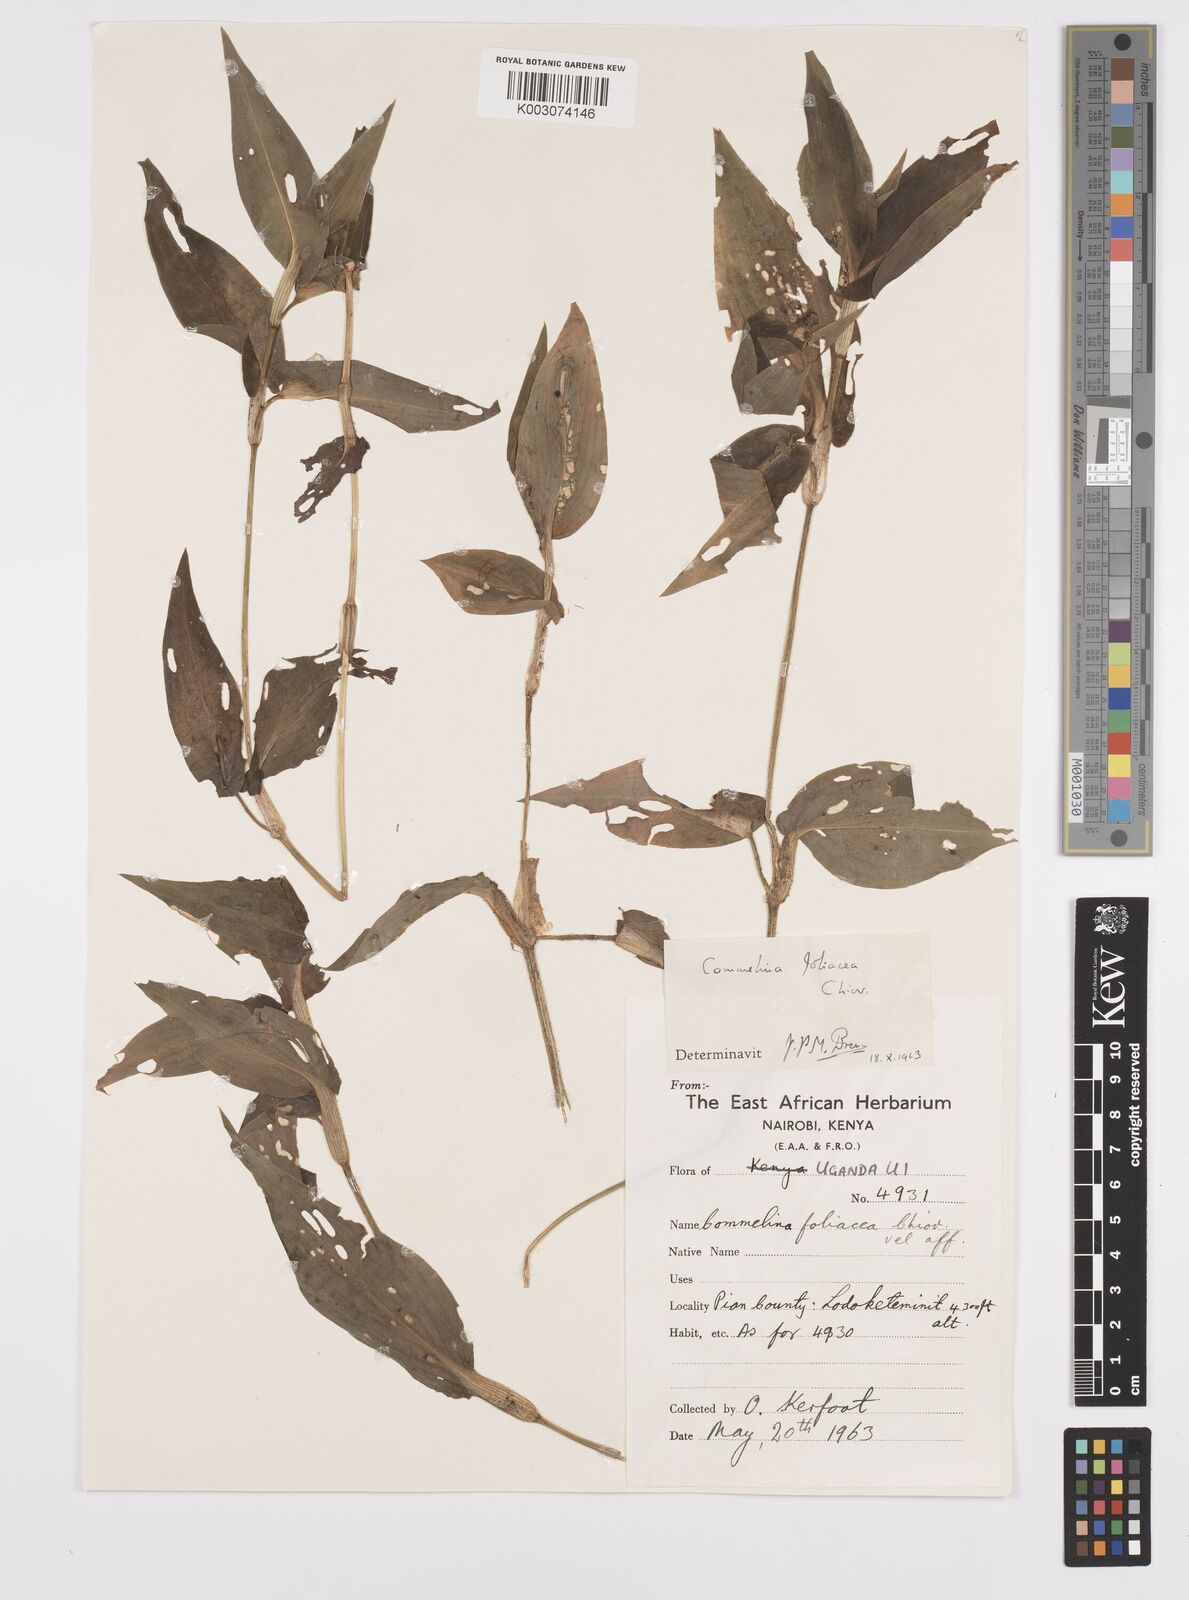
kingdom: Plantae
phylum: Tracheophyta
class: Liliopsida
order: Commelinales
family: Commelinaceae
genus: Commelina
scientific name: Commelina foliacea
